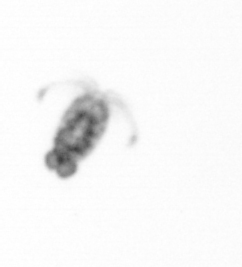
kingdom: Animalia
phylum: Arthropoda
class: Copepoda
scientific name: Copepoda
